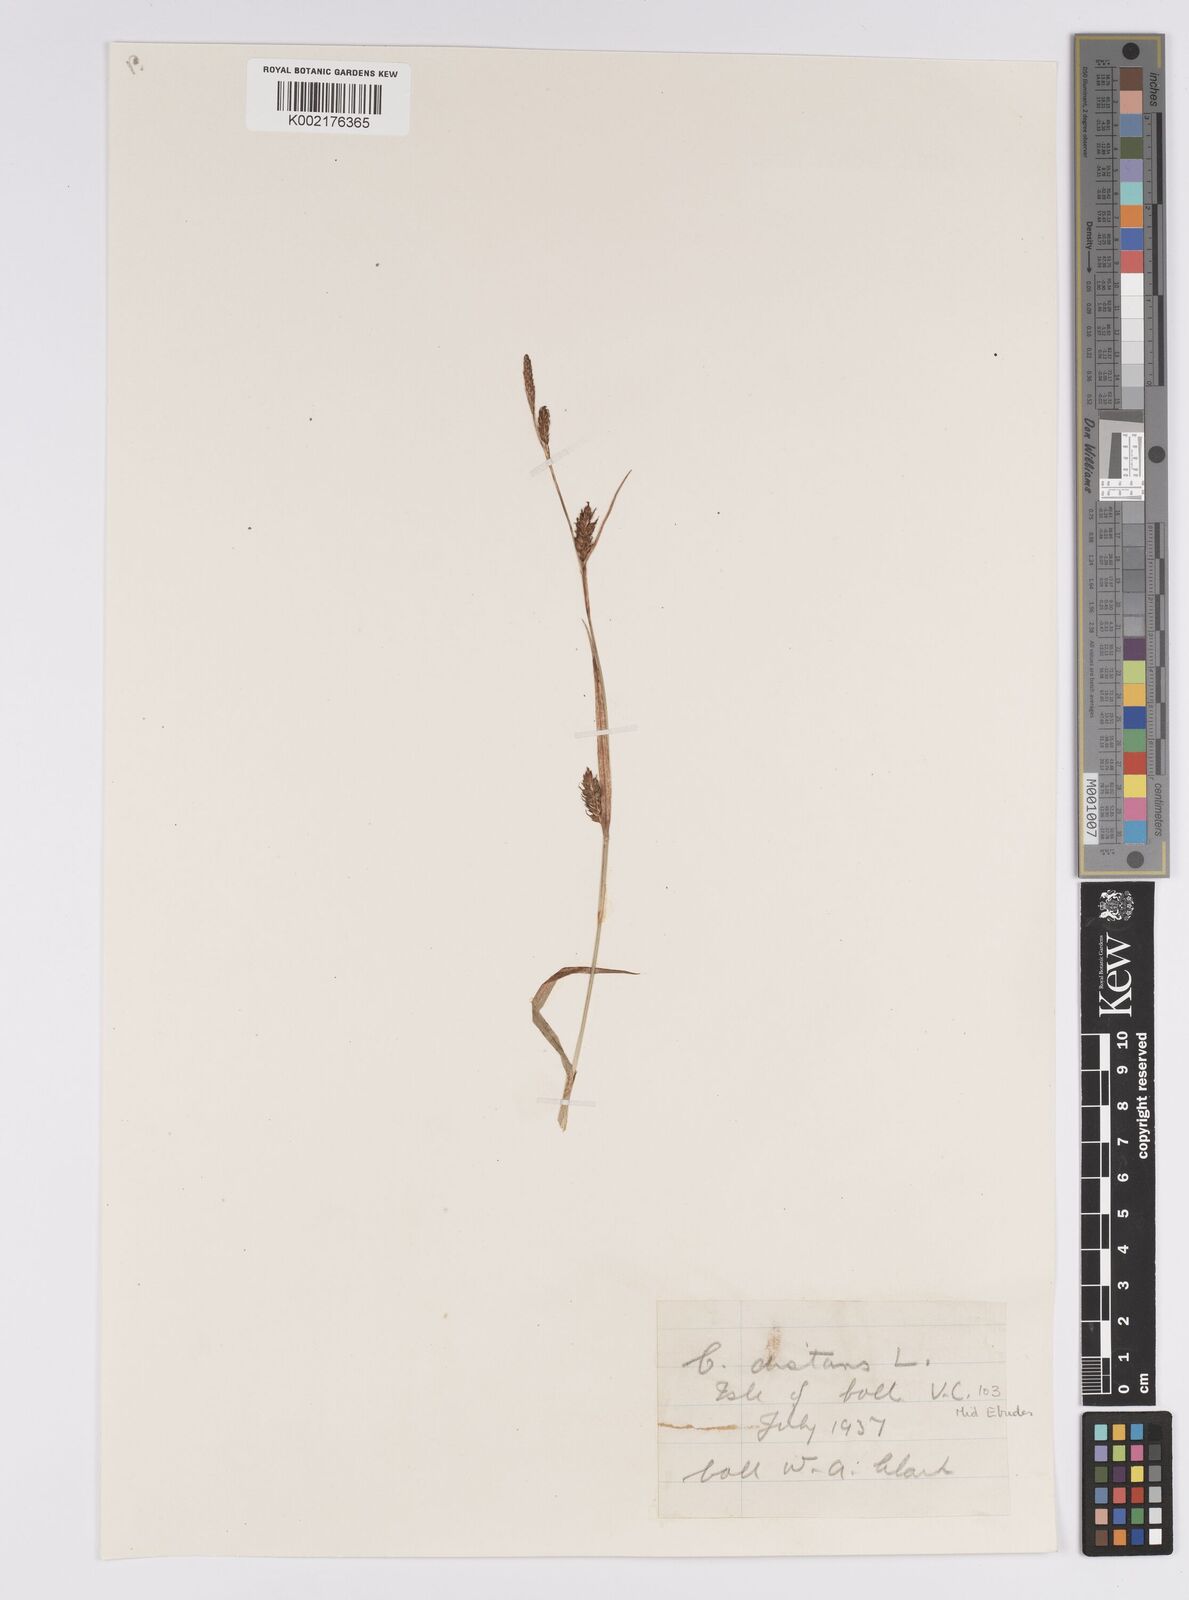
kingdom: Plantae
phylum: Tracheophyta
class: Liliopsida
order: Poales
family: Cyperaceae
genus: Carex
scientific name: Carex distans
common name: Distant sedge
